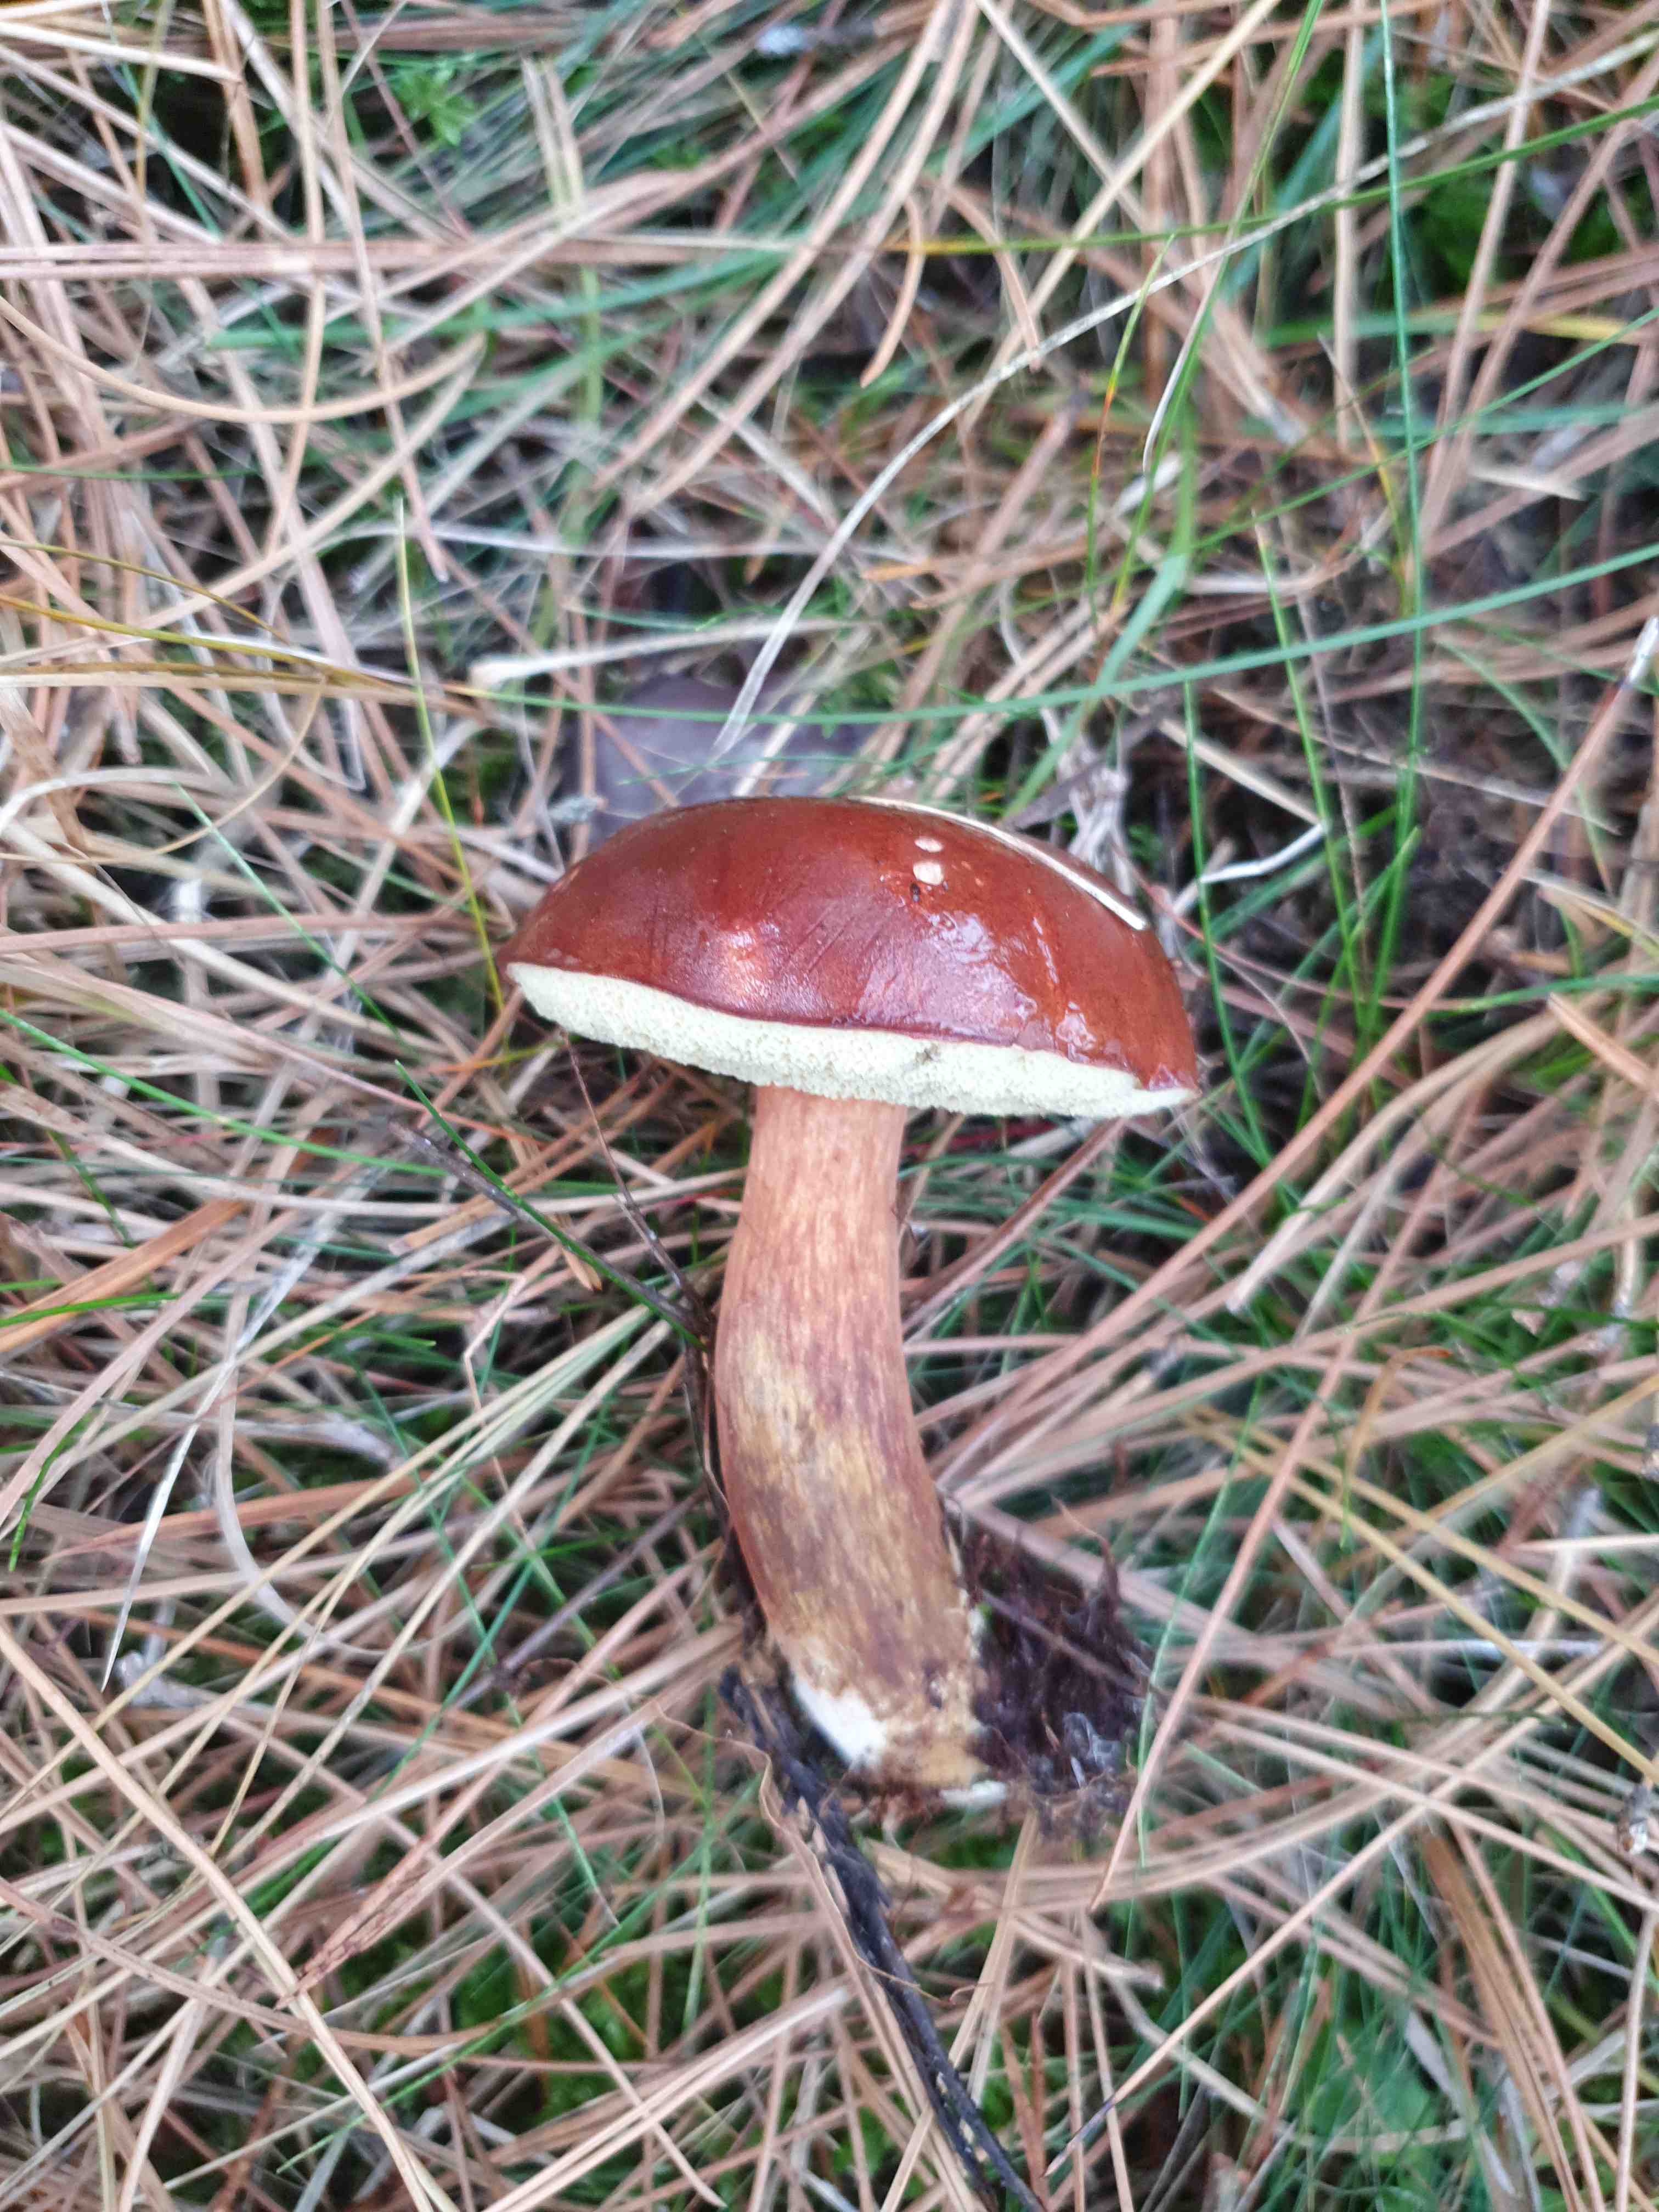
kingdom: Fungi
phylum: Basidiomycota
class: Agaricomycetes
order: Boletales
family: Boletaceae
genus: Imleria
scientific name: Imleria badia
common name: brunstokket rørhat
